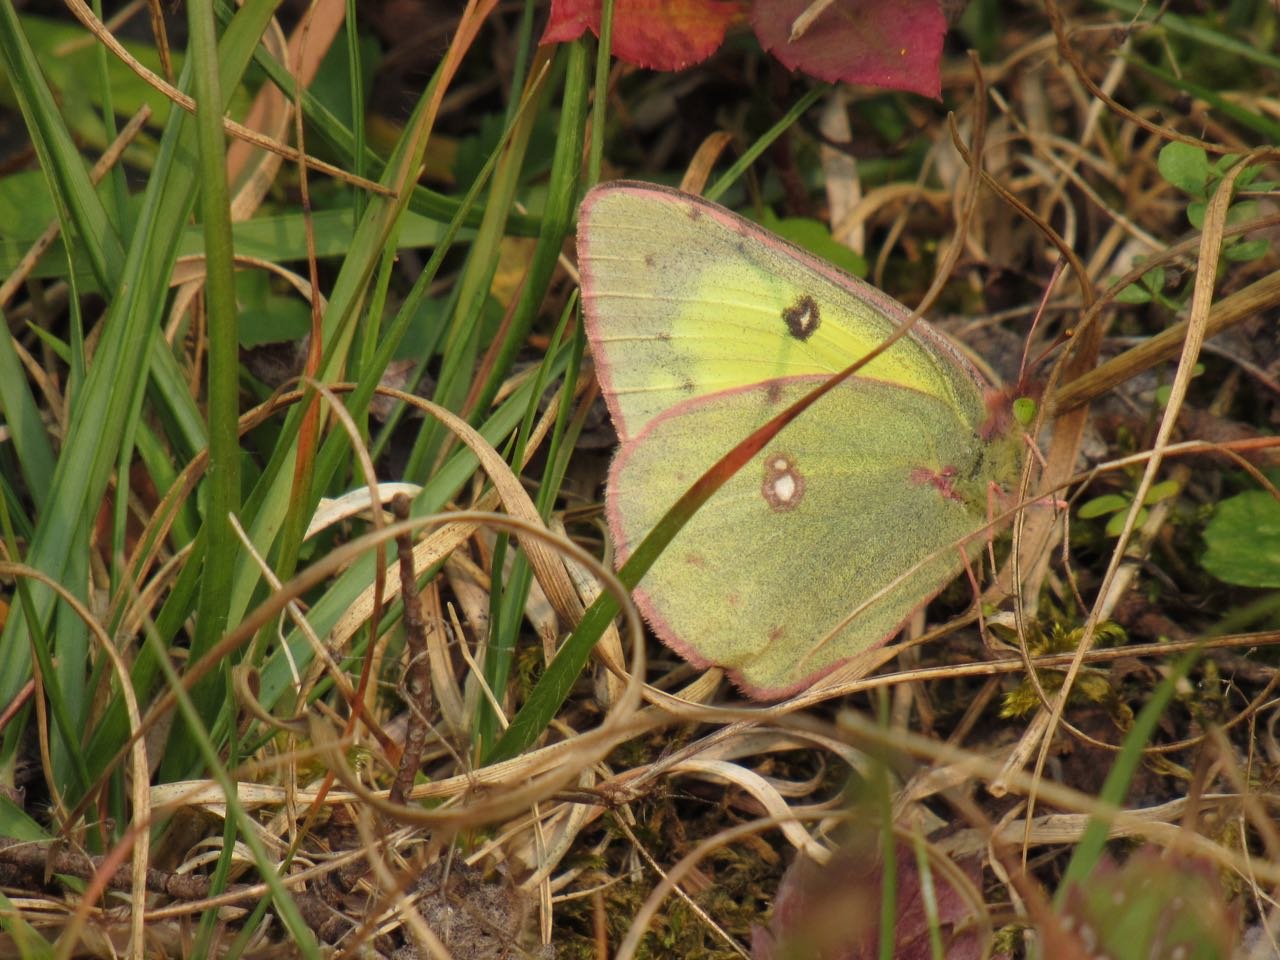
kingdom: Animalia
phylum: Arthropoda
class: Insecta
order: Lepidoptera
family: Pieridae
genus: Colias
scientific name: Colias philodice
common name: Clouded Sulphur
